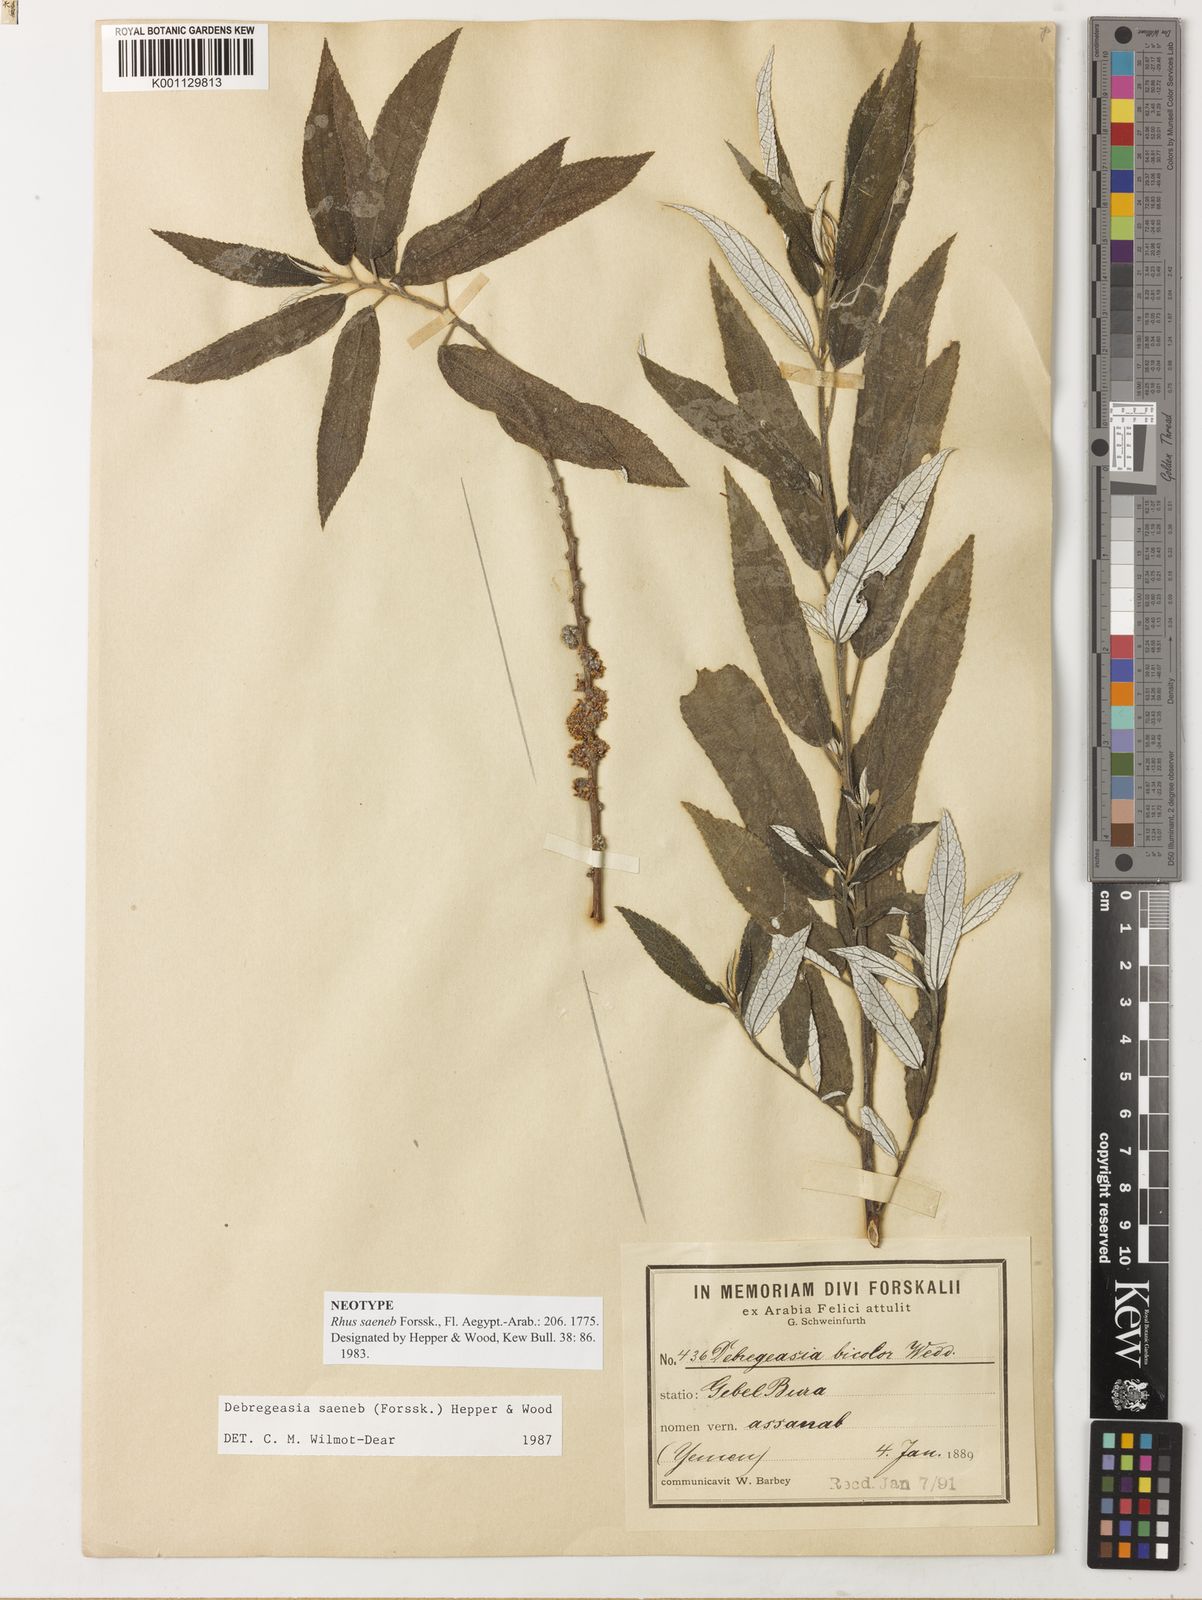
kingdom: Plantae
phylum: Tracheophyta
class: Magnoliopsida
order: Rosales
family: Urticaceae
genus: Debregeasia
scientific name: Debregeasia saeneb
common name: Himalayan wild rhea
